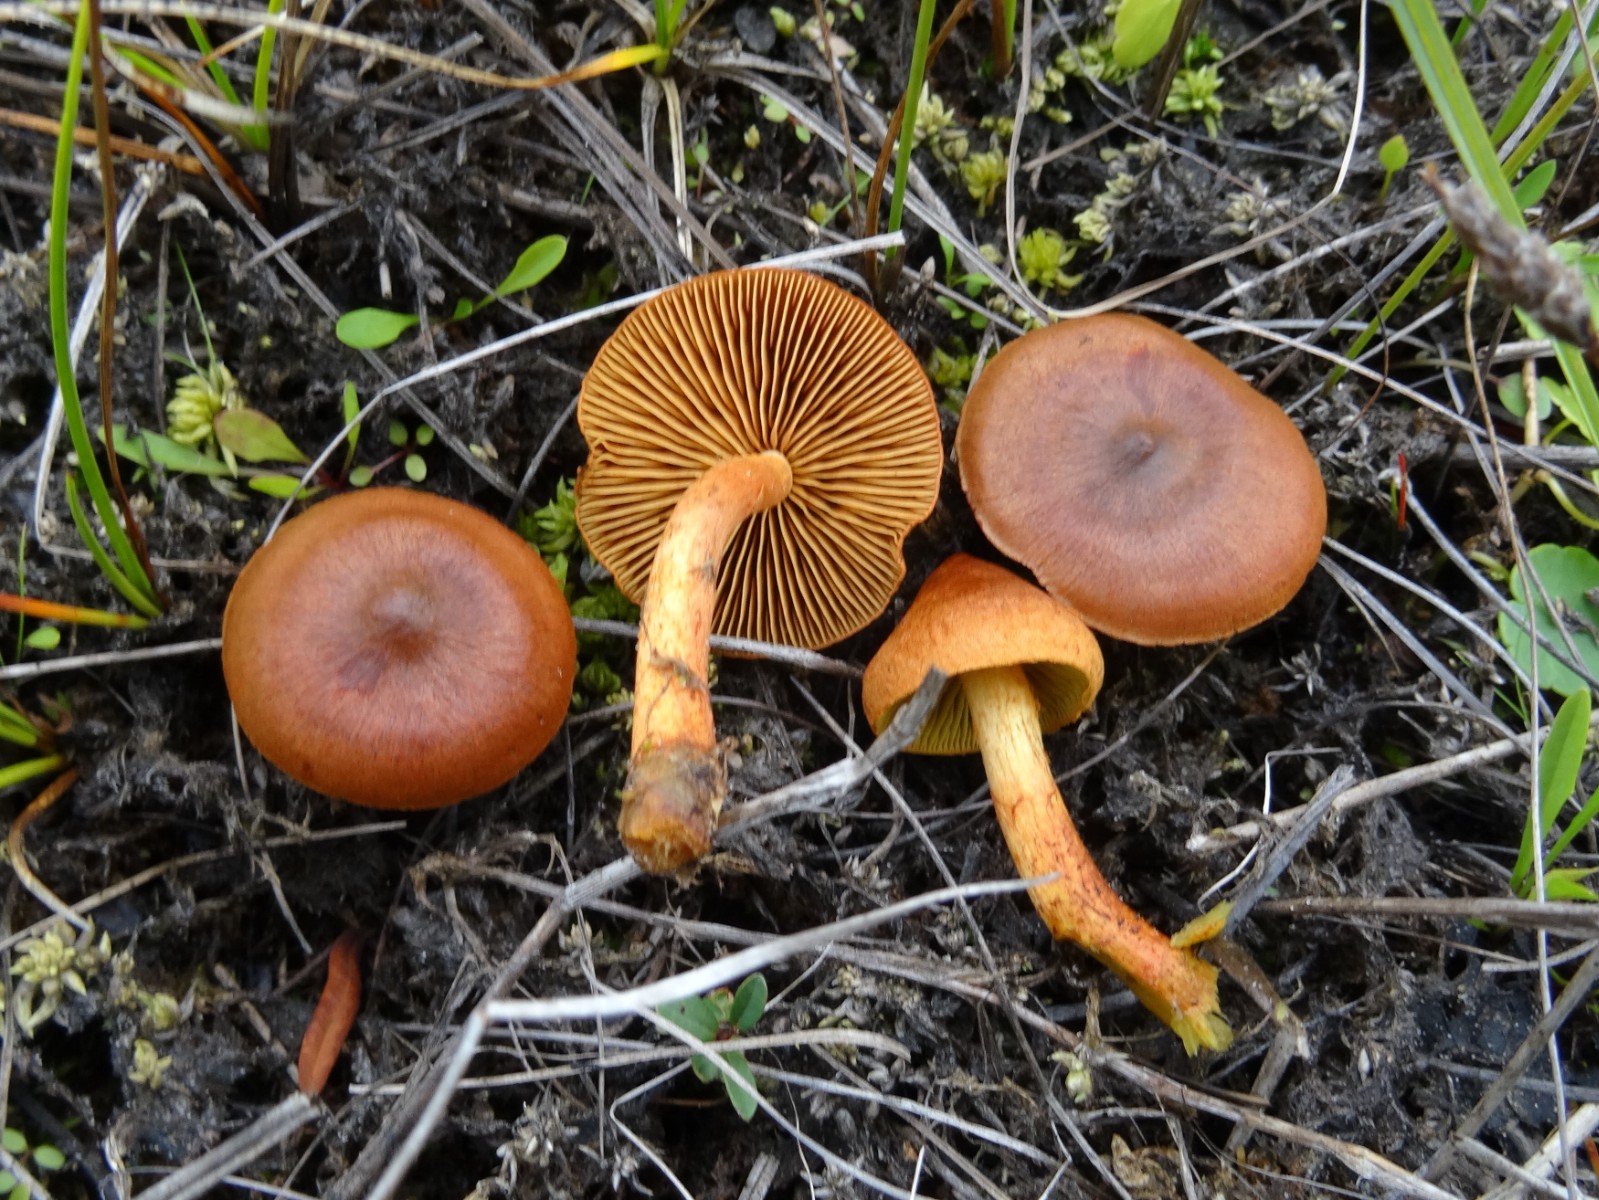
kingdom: Fungi
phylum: Basidiomycota
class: Agaricomycetes
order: Agaricales
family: Cortinariaceae
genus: Cortinarius
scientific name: Cortinarius uliginosus
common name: mose-slørhat
